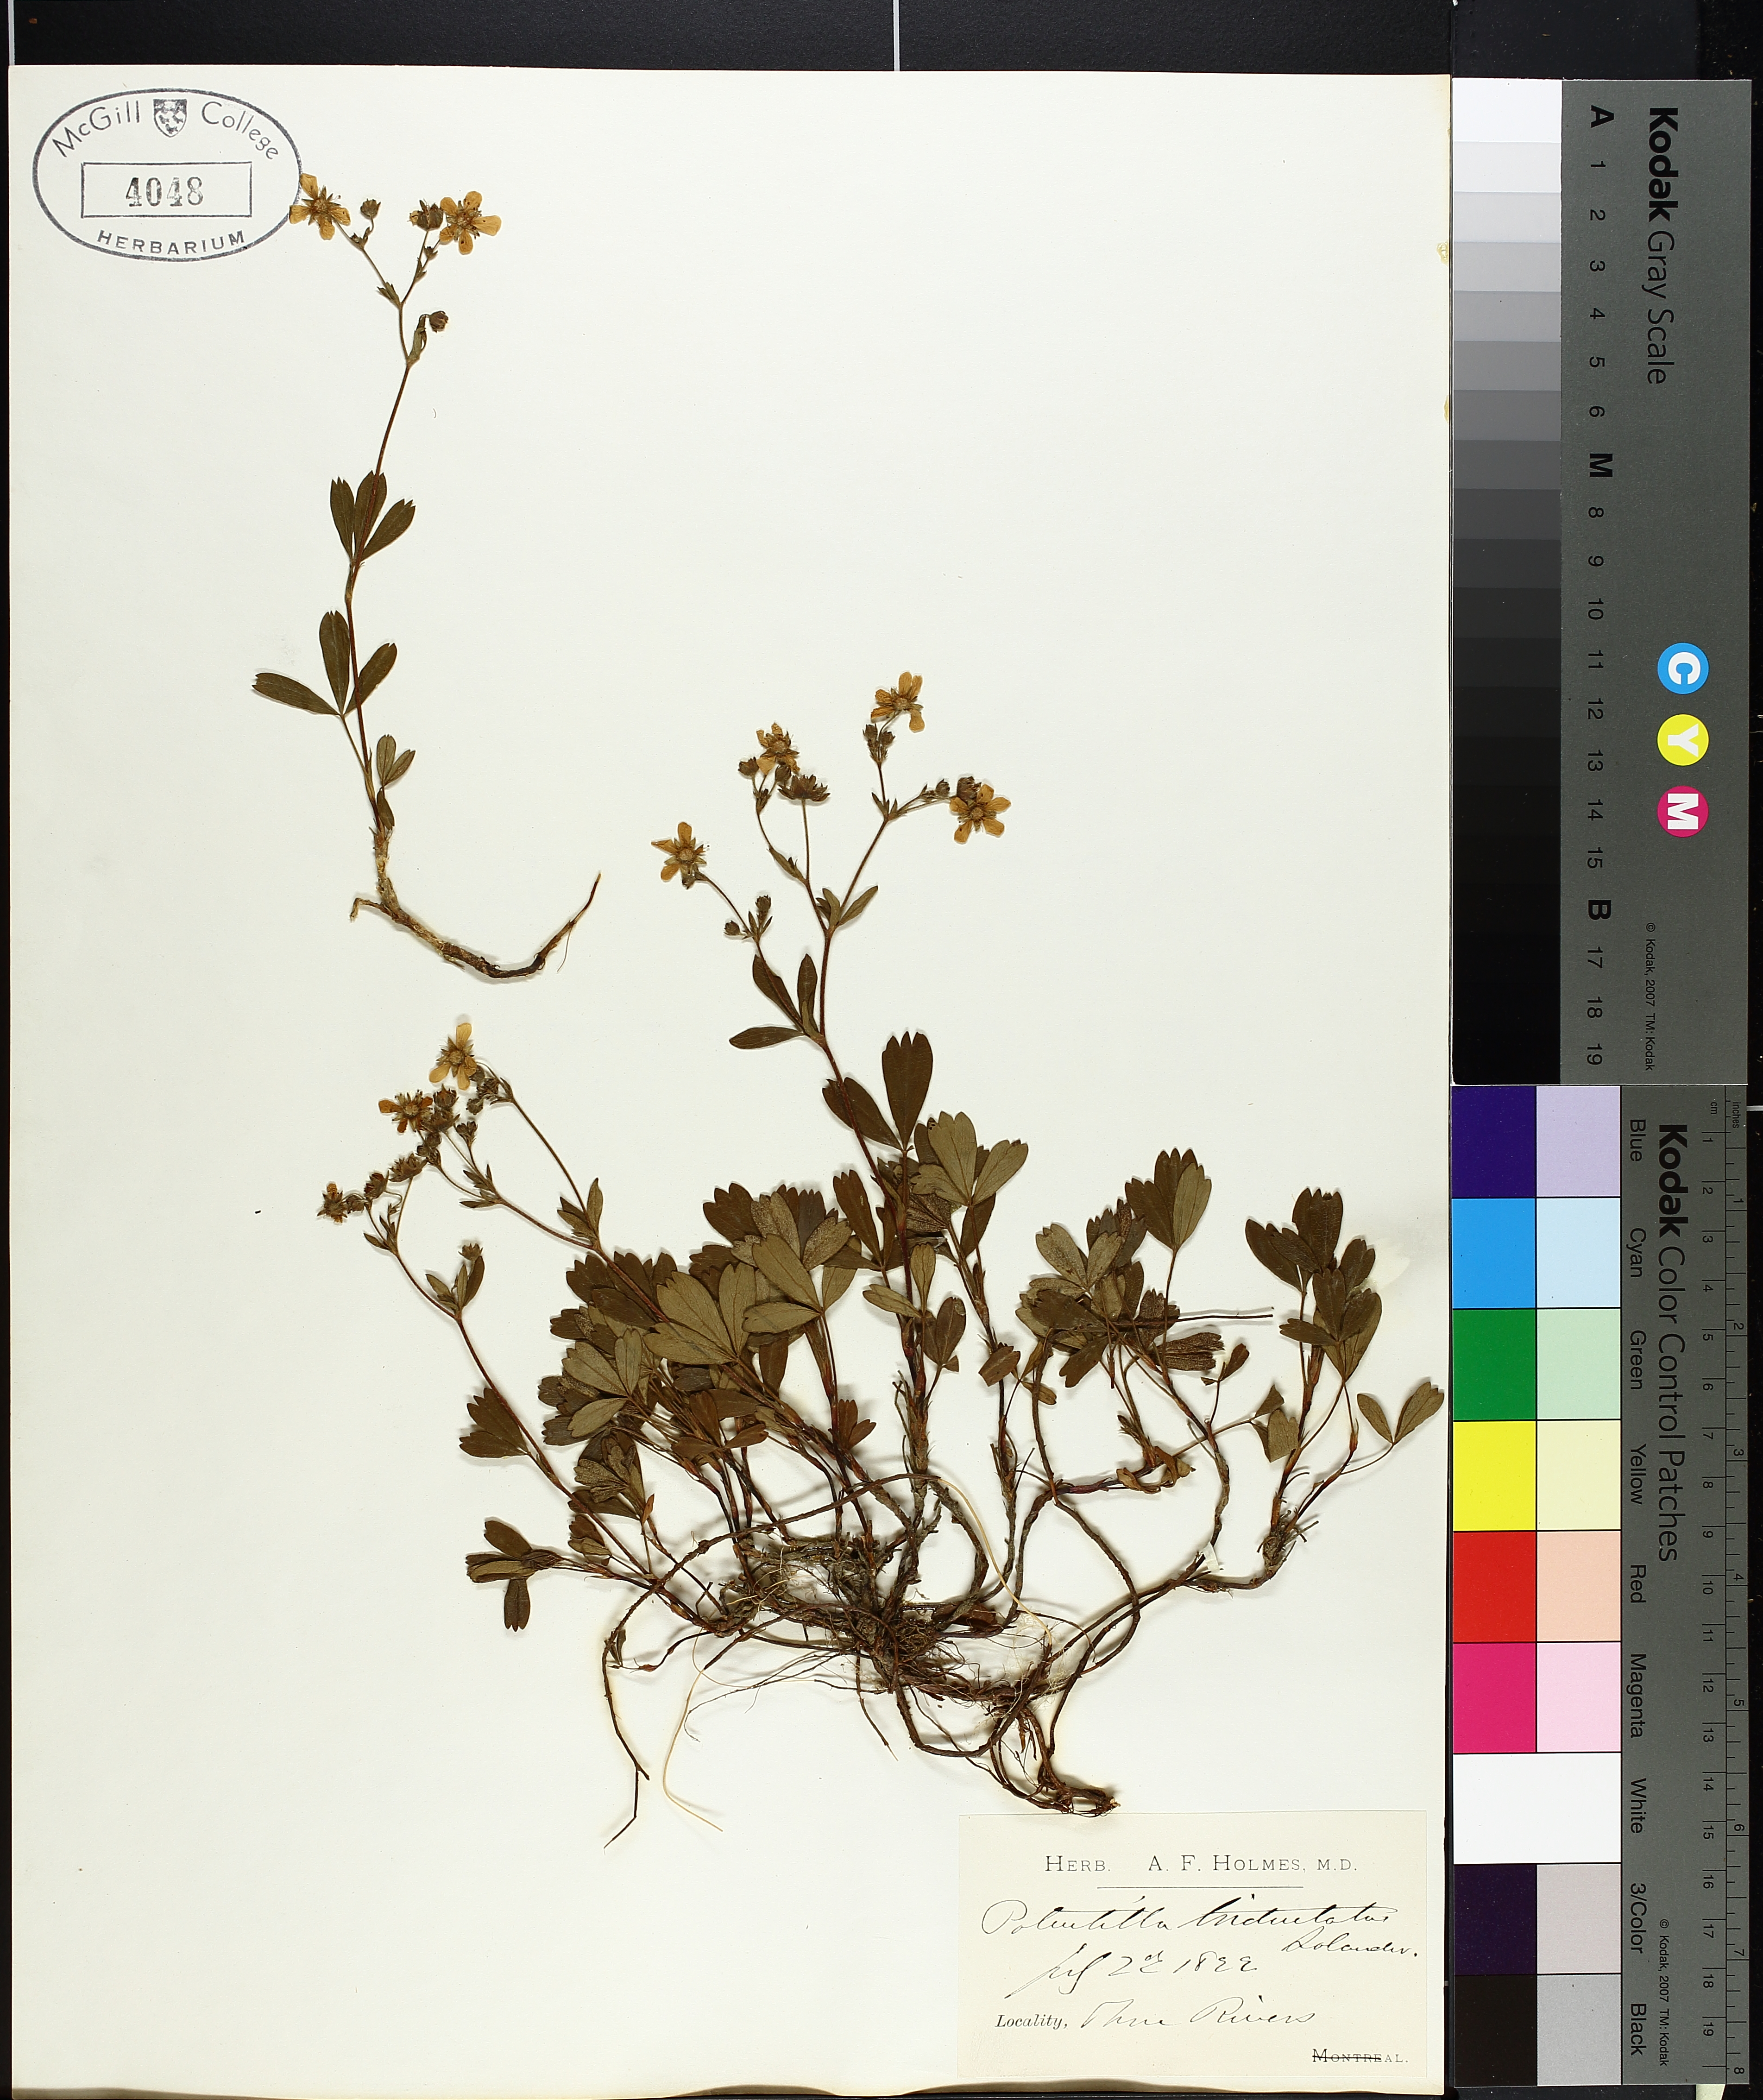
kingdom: Plantae
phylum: Tracheophyta
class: Magnoliopsida
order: Rosales
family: Rosaceae
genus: Sibbaldia
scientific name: Sibbaldia tridentata
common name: Three-toothed cinquefoil
